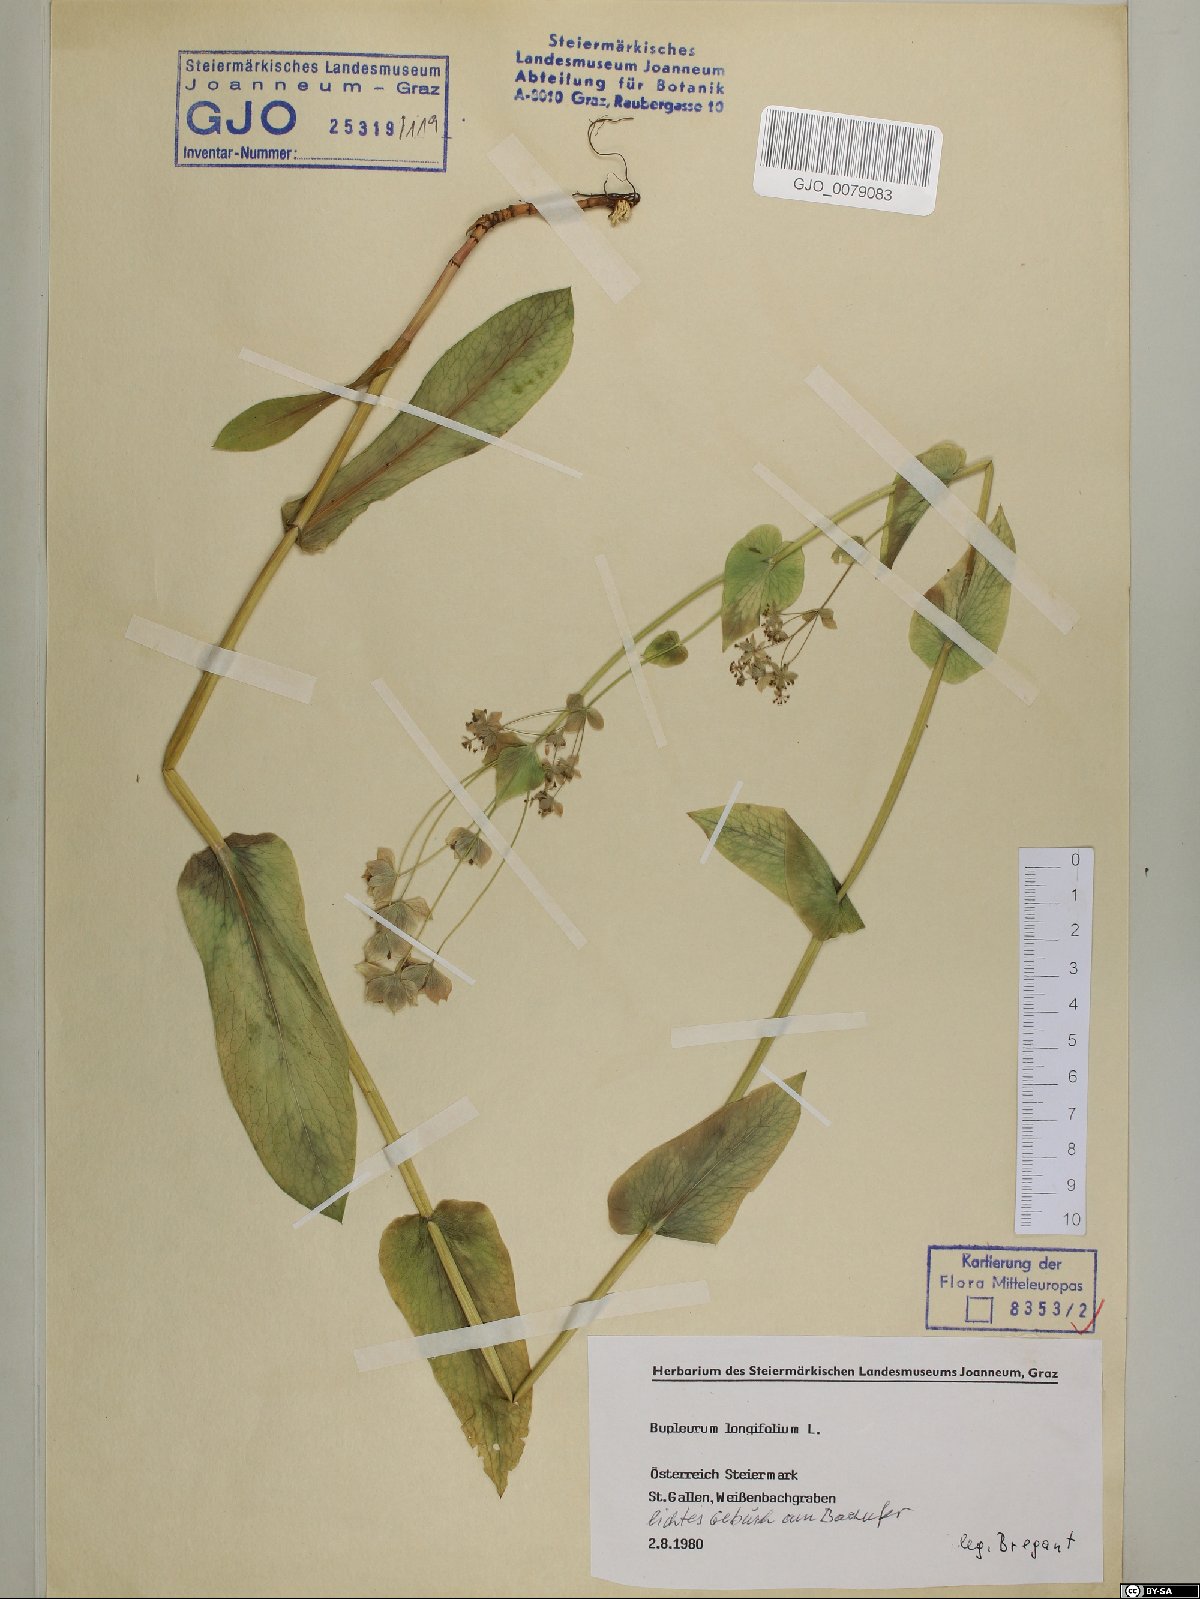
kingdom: Plantae
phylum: Tracheophyta
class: Magnoliopsida
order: Apiales
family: Apiaceae
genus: Bupleurum
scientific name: Bupleurum longifolium
